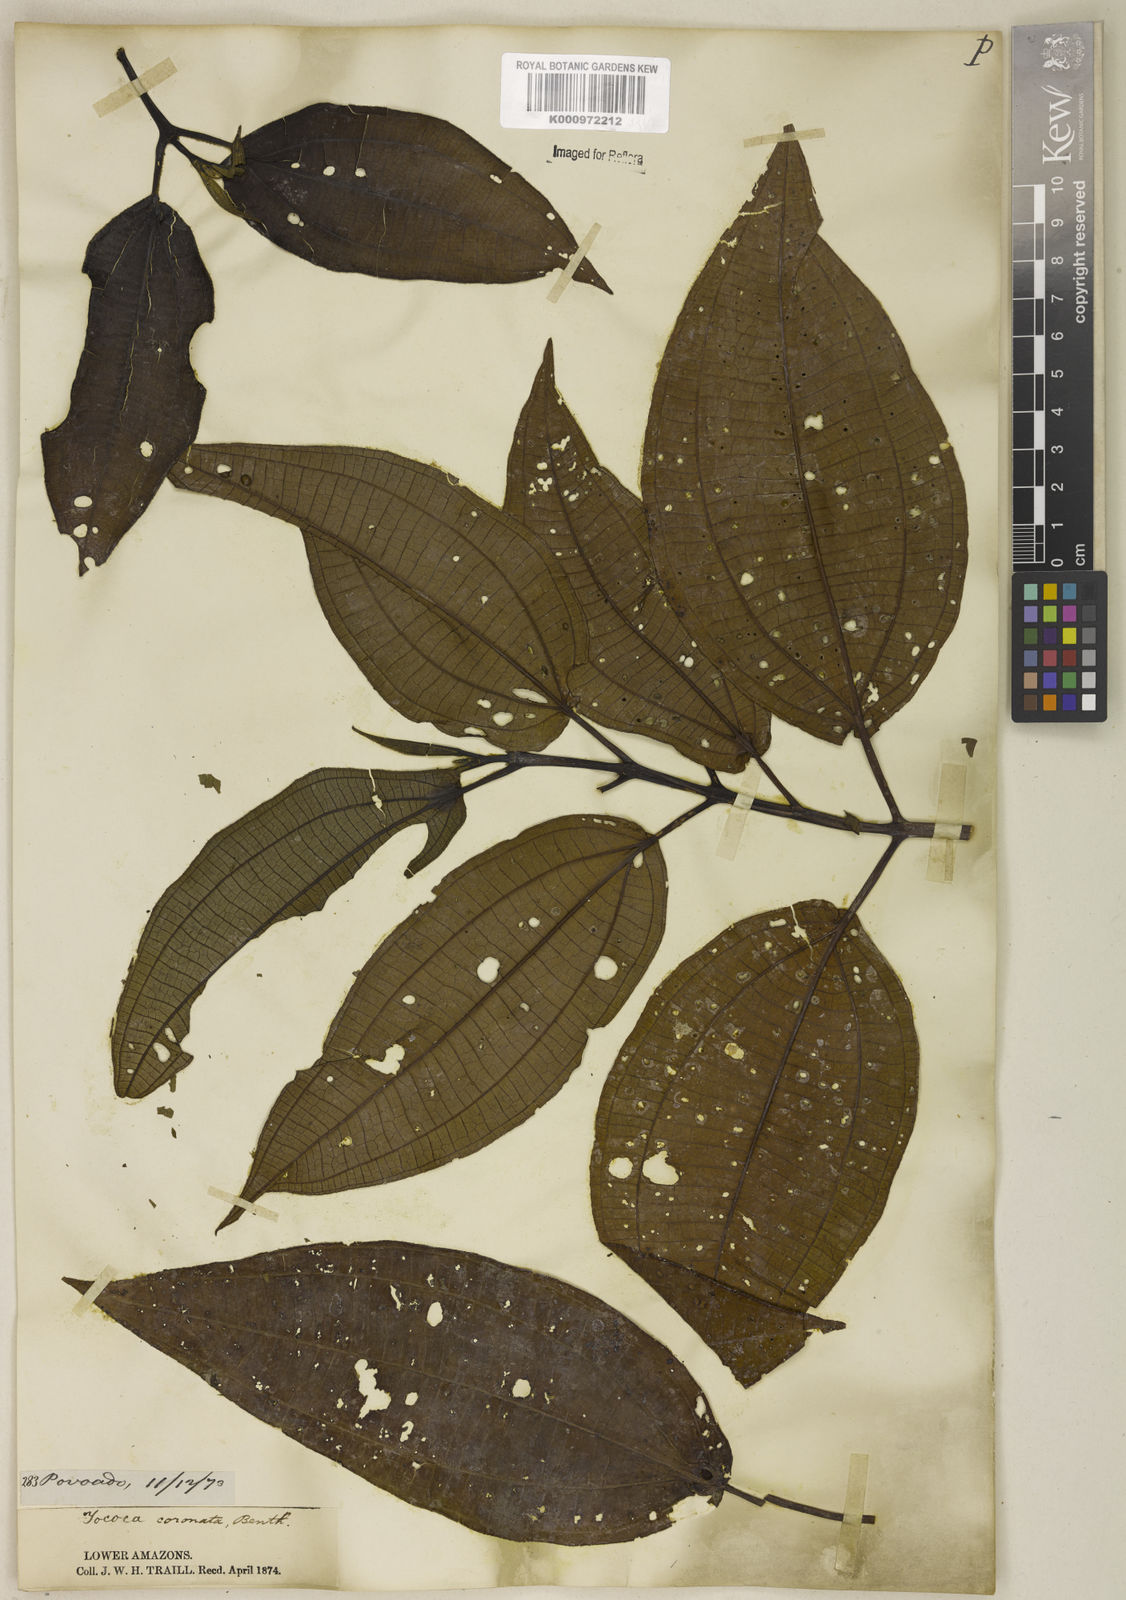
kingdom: Plantae
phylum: Tracheophyta
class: Magnoliopsida
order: Myrtales
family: Melastomataceae
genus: Miconia
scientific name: Miconia tococoronata
